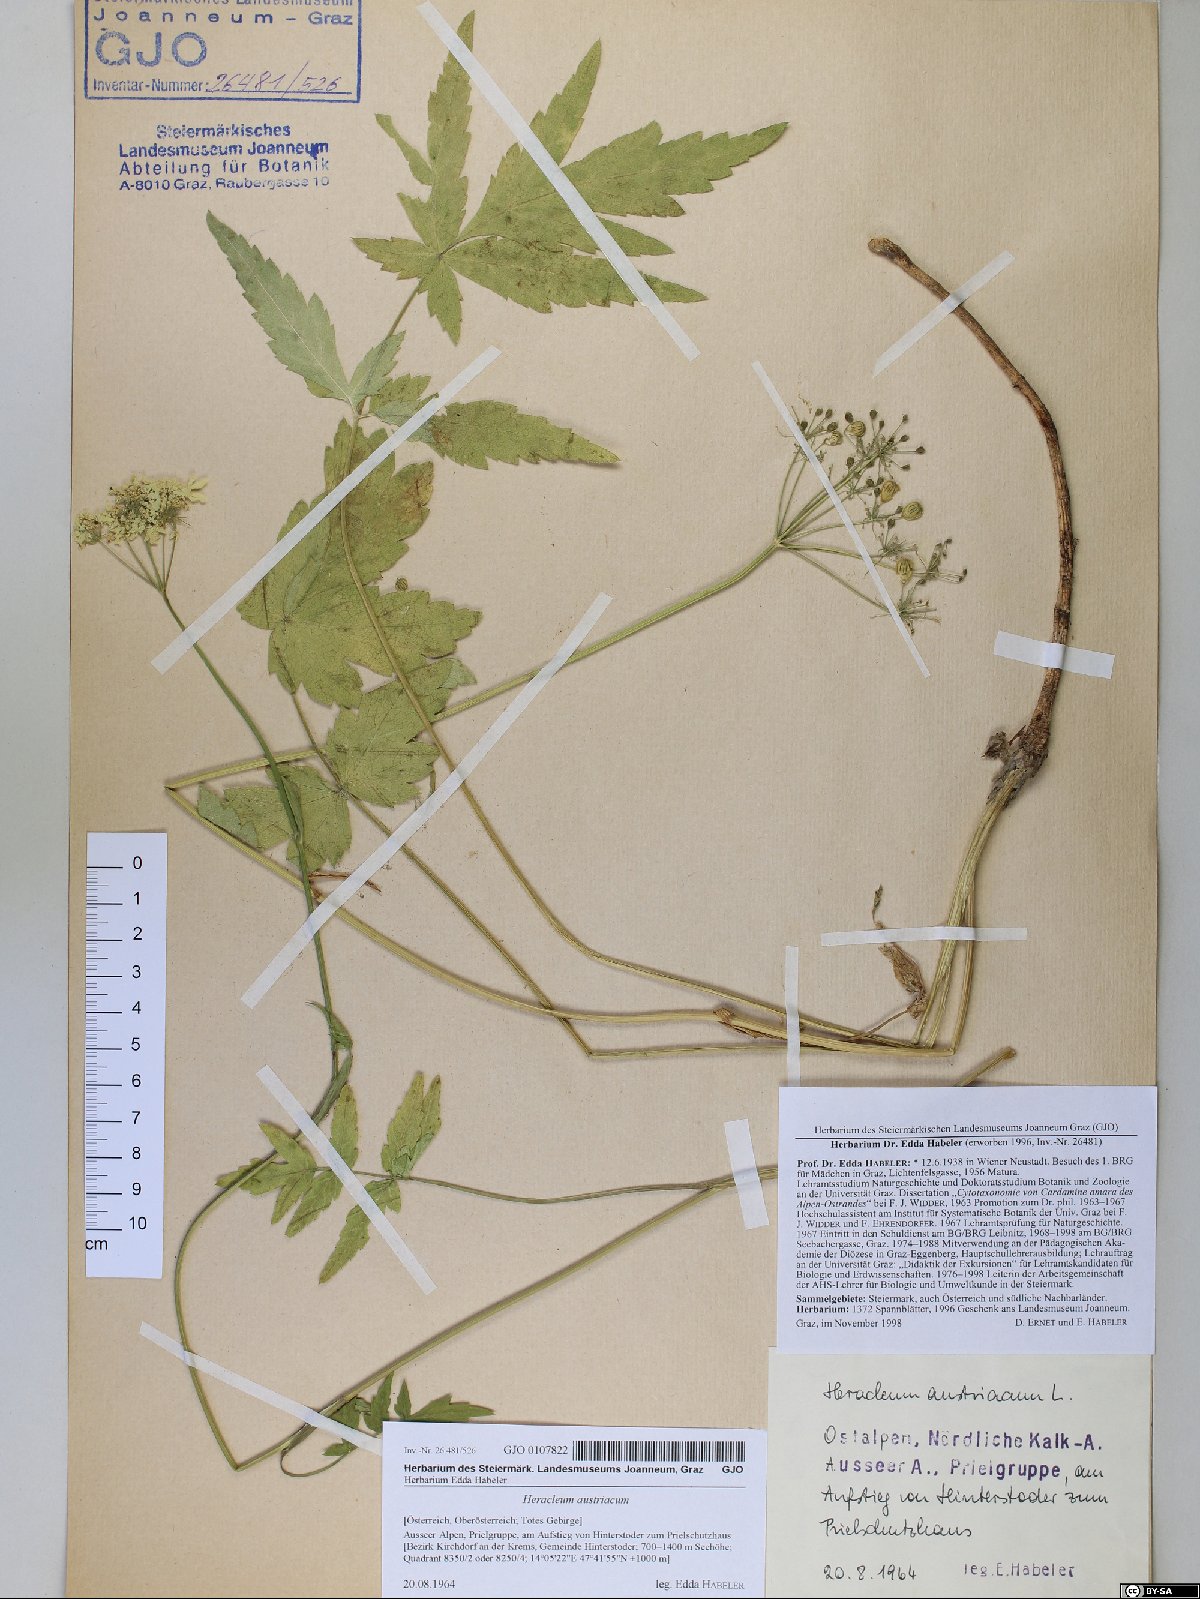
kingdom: Plantae
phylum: Tracheophyta
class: Magnoliopsida
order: Apiales
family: Apiaceae
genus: Heracleum
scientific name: Heracleum austriacum
